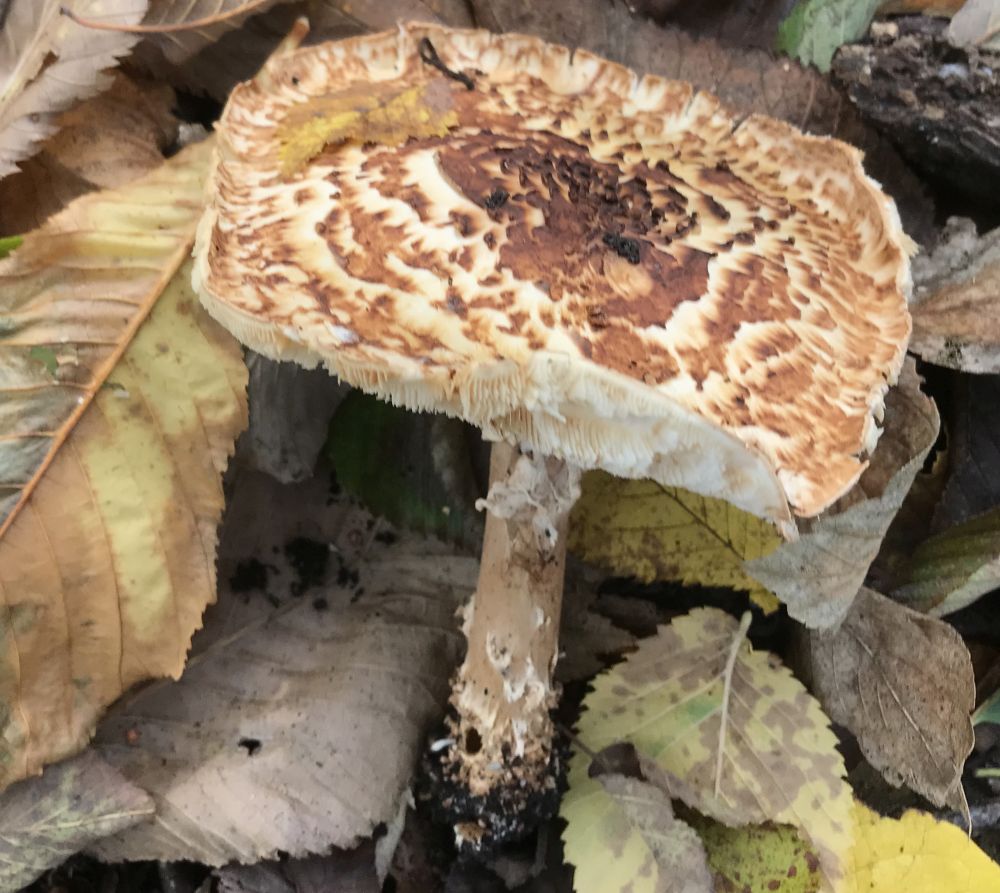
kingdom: Fungi
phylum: Basidiomycota
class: Agaricomycetes
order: Agaricales
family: Agaricaceae
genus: Echinoderma
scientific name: Echinoderma asperum
